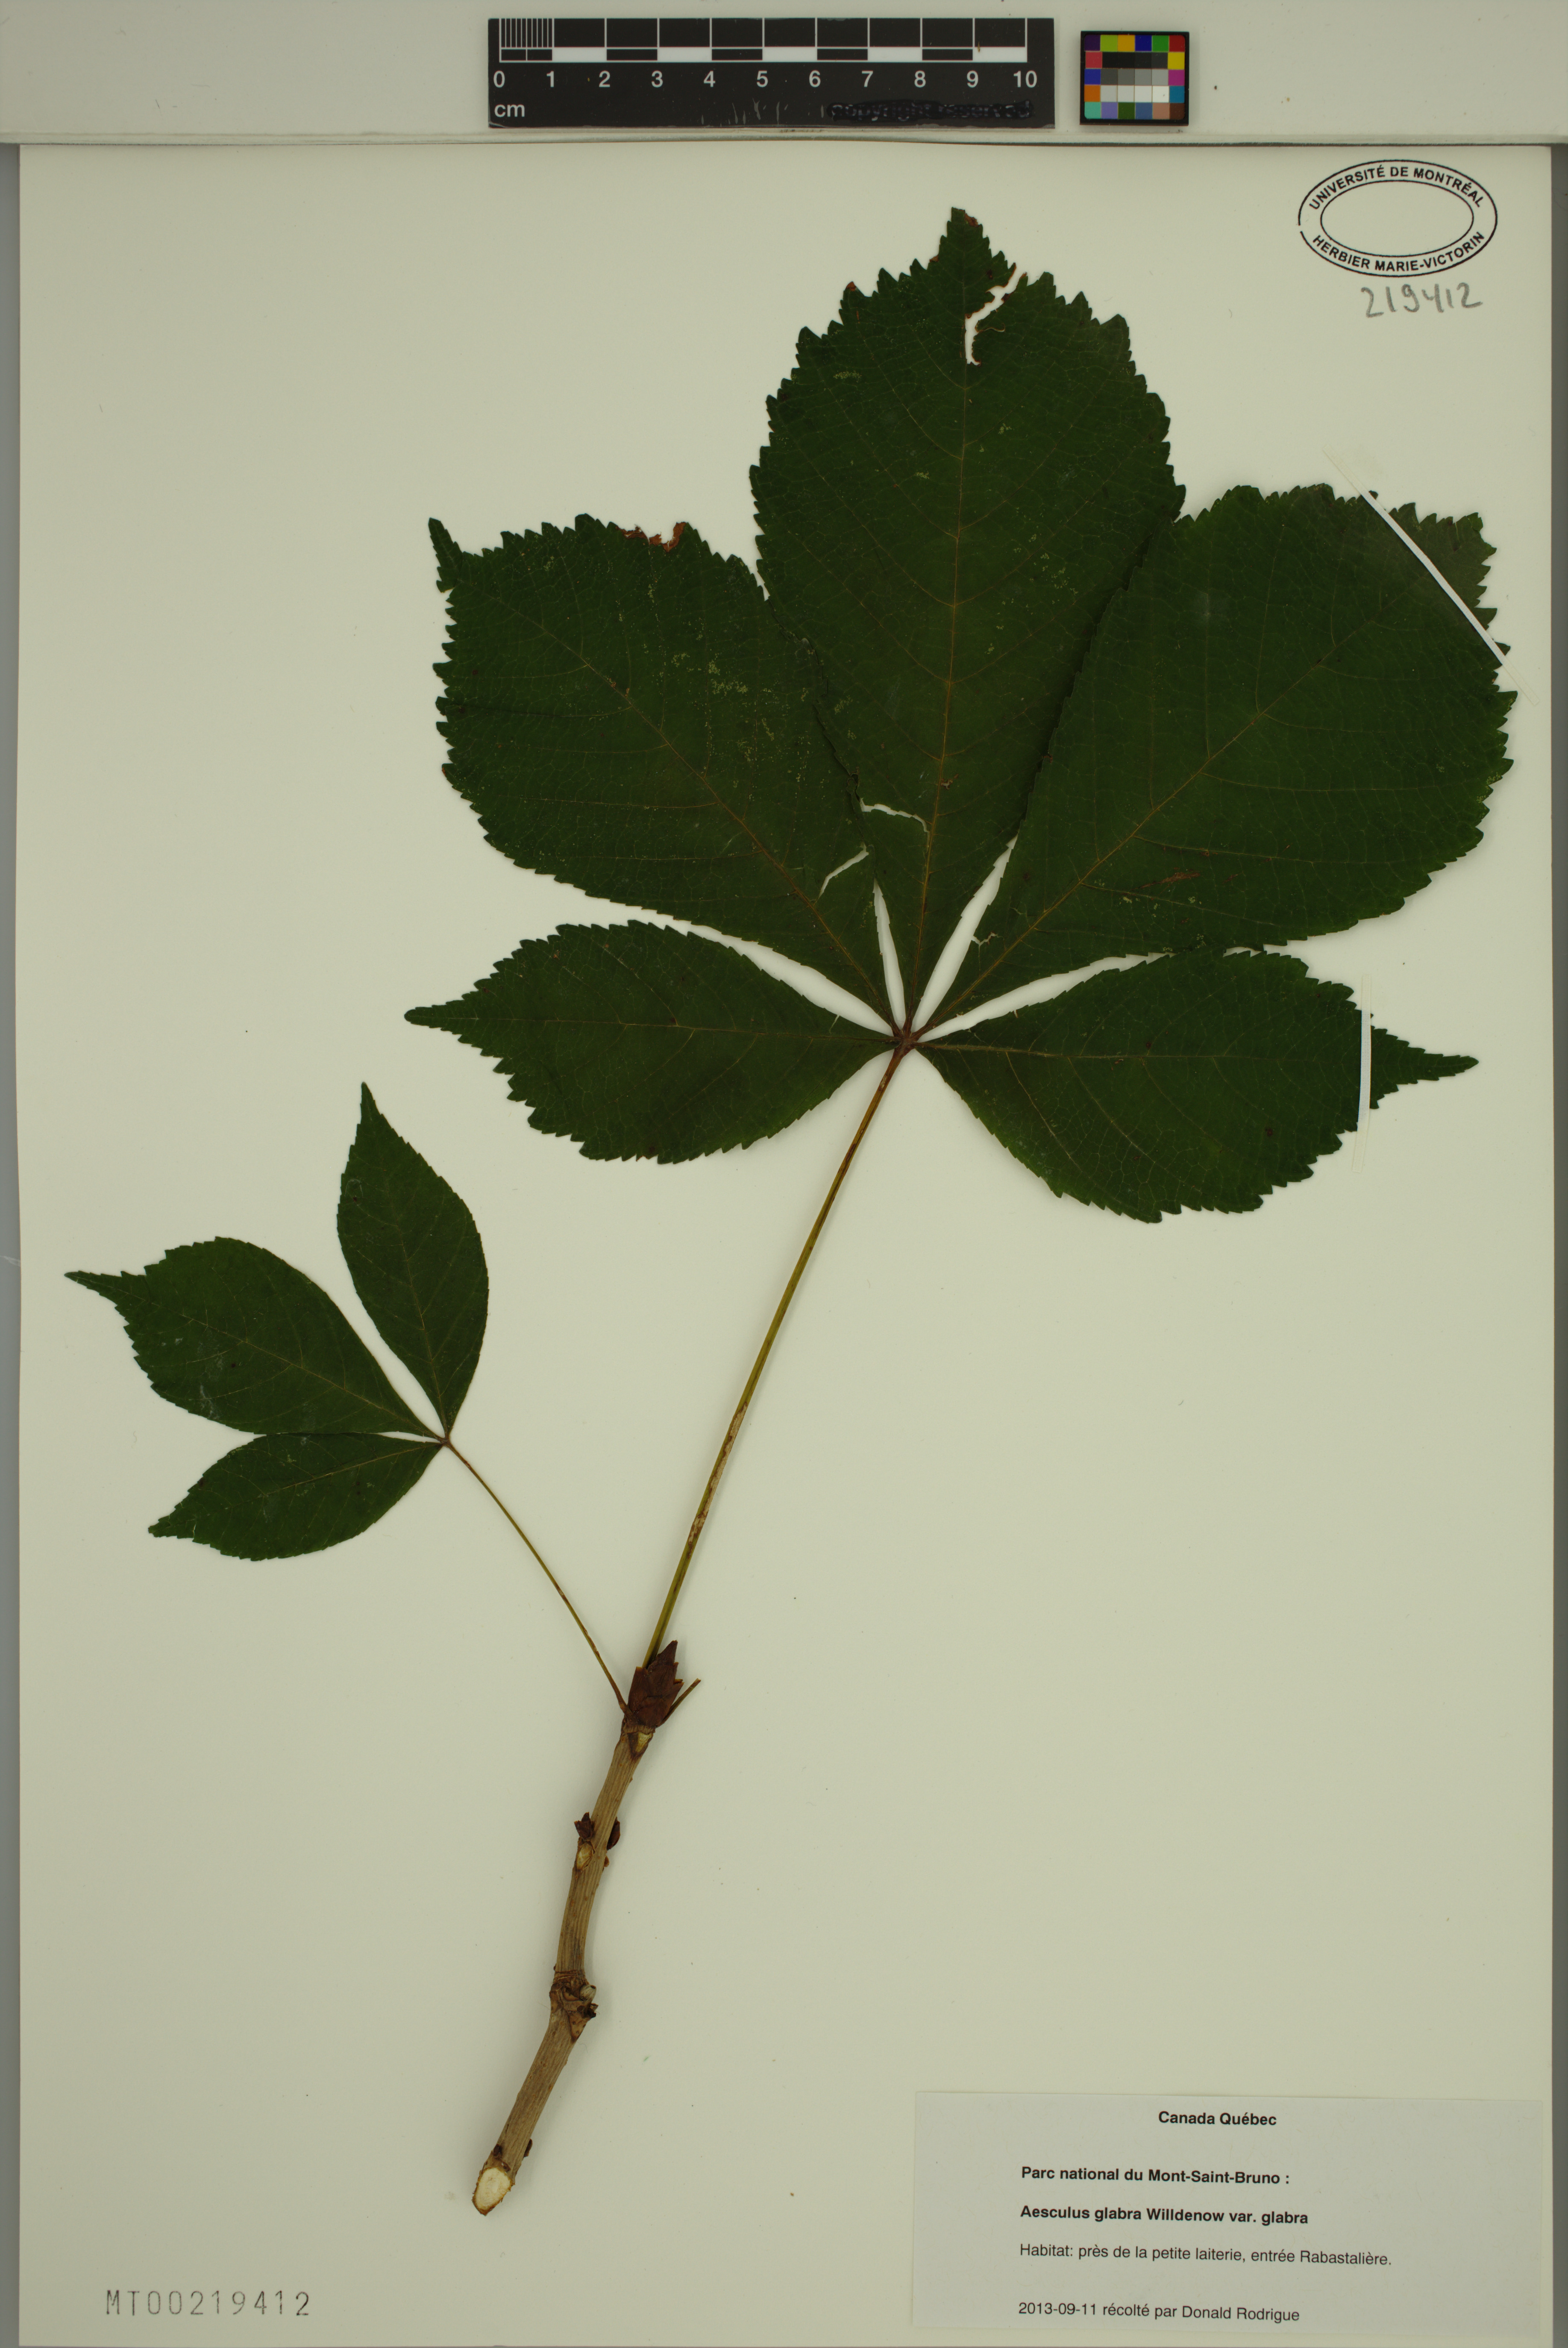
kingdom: Plantae
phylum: Tracheophyta
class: Magnoliopsida
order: Sapindales
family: Sapindaceae
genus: Aesculus
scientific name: Aesculus glabra
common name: Ohio buckeye
